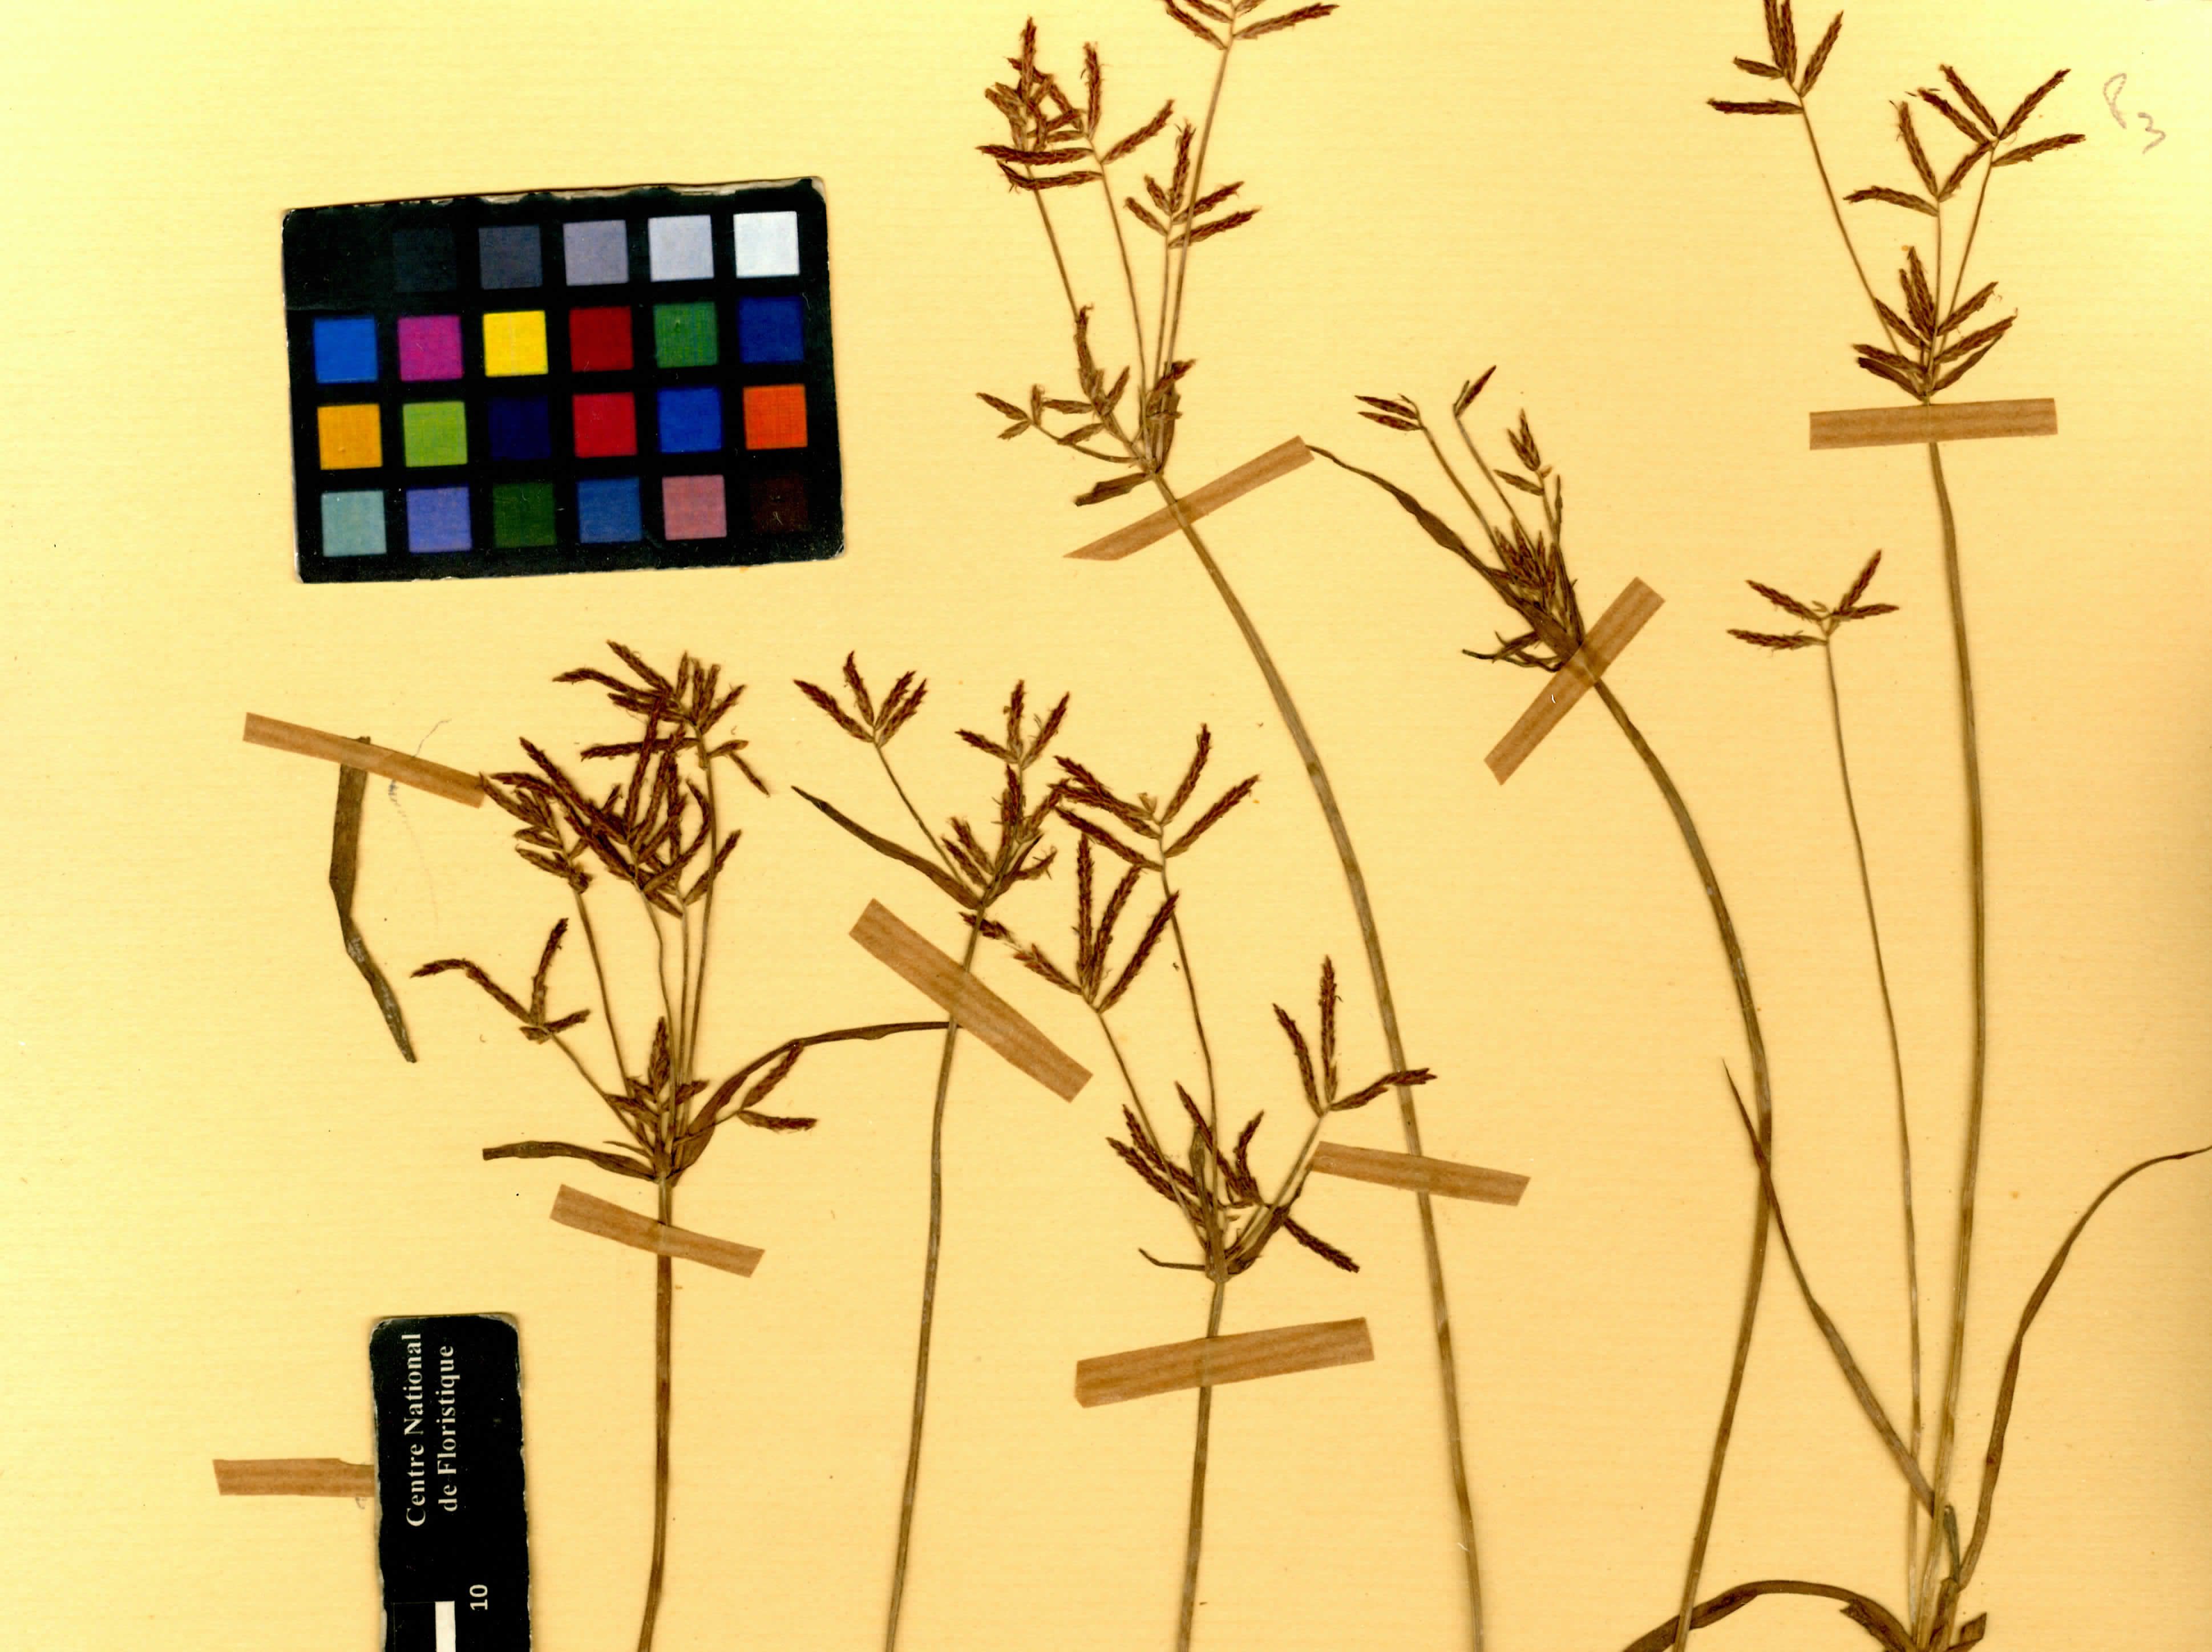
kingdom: Plantae
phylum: Tracheophyta
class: Liliopsida
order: Poales
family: Cyperaceae
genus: Cyperus
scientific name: Cyperus rotundus
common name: Nutgrass
